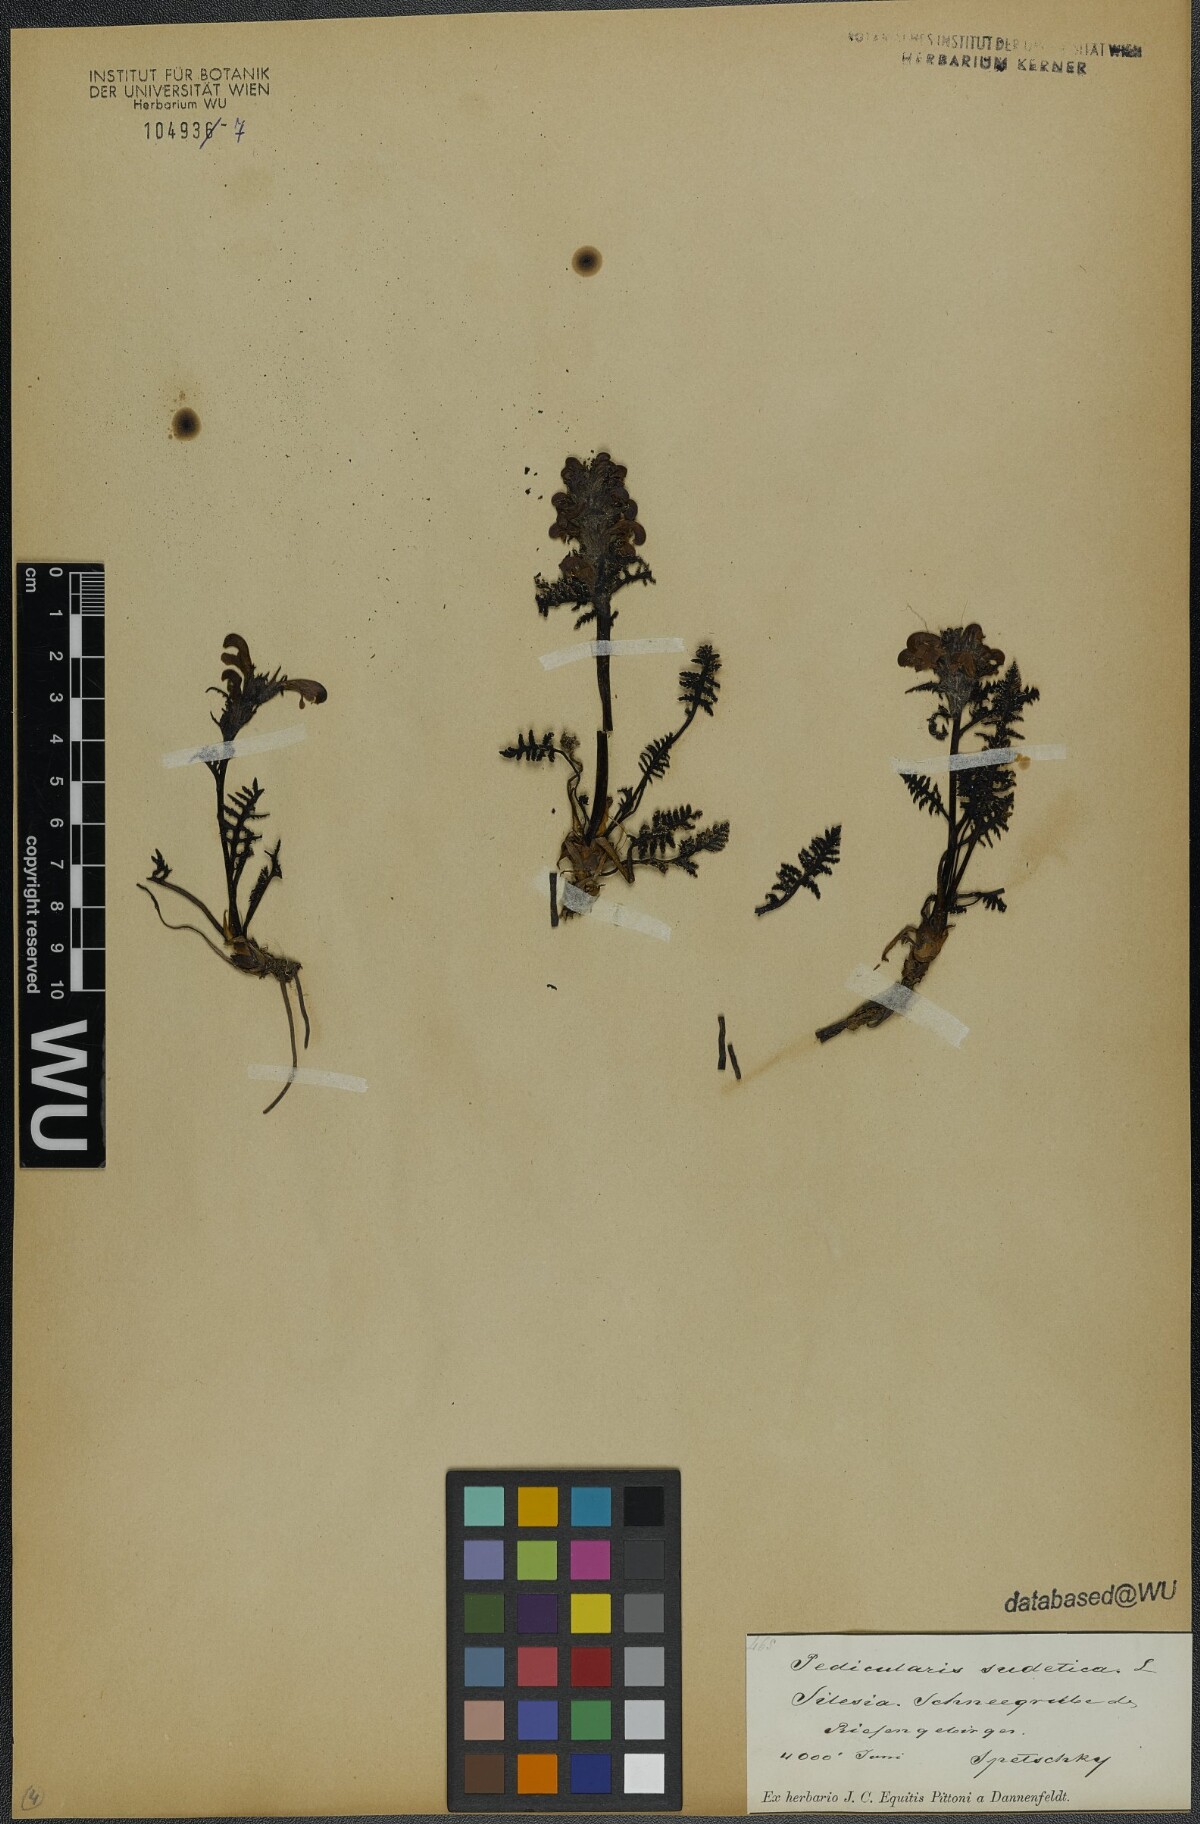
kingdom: Plantae
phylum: Tracheophyta
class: Magnoliopsida
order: Lamiales
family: Orobanchaceae
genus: Pedicularis
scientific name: Pedicularis sudetica
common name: Sudeten lousewort
